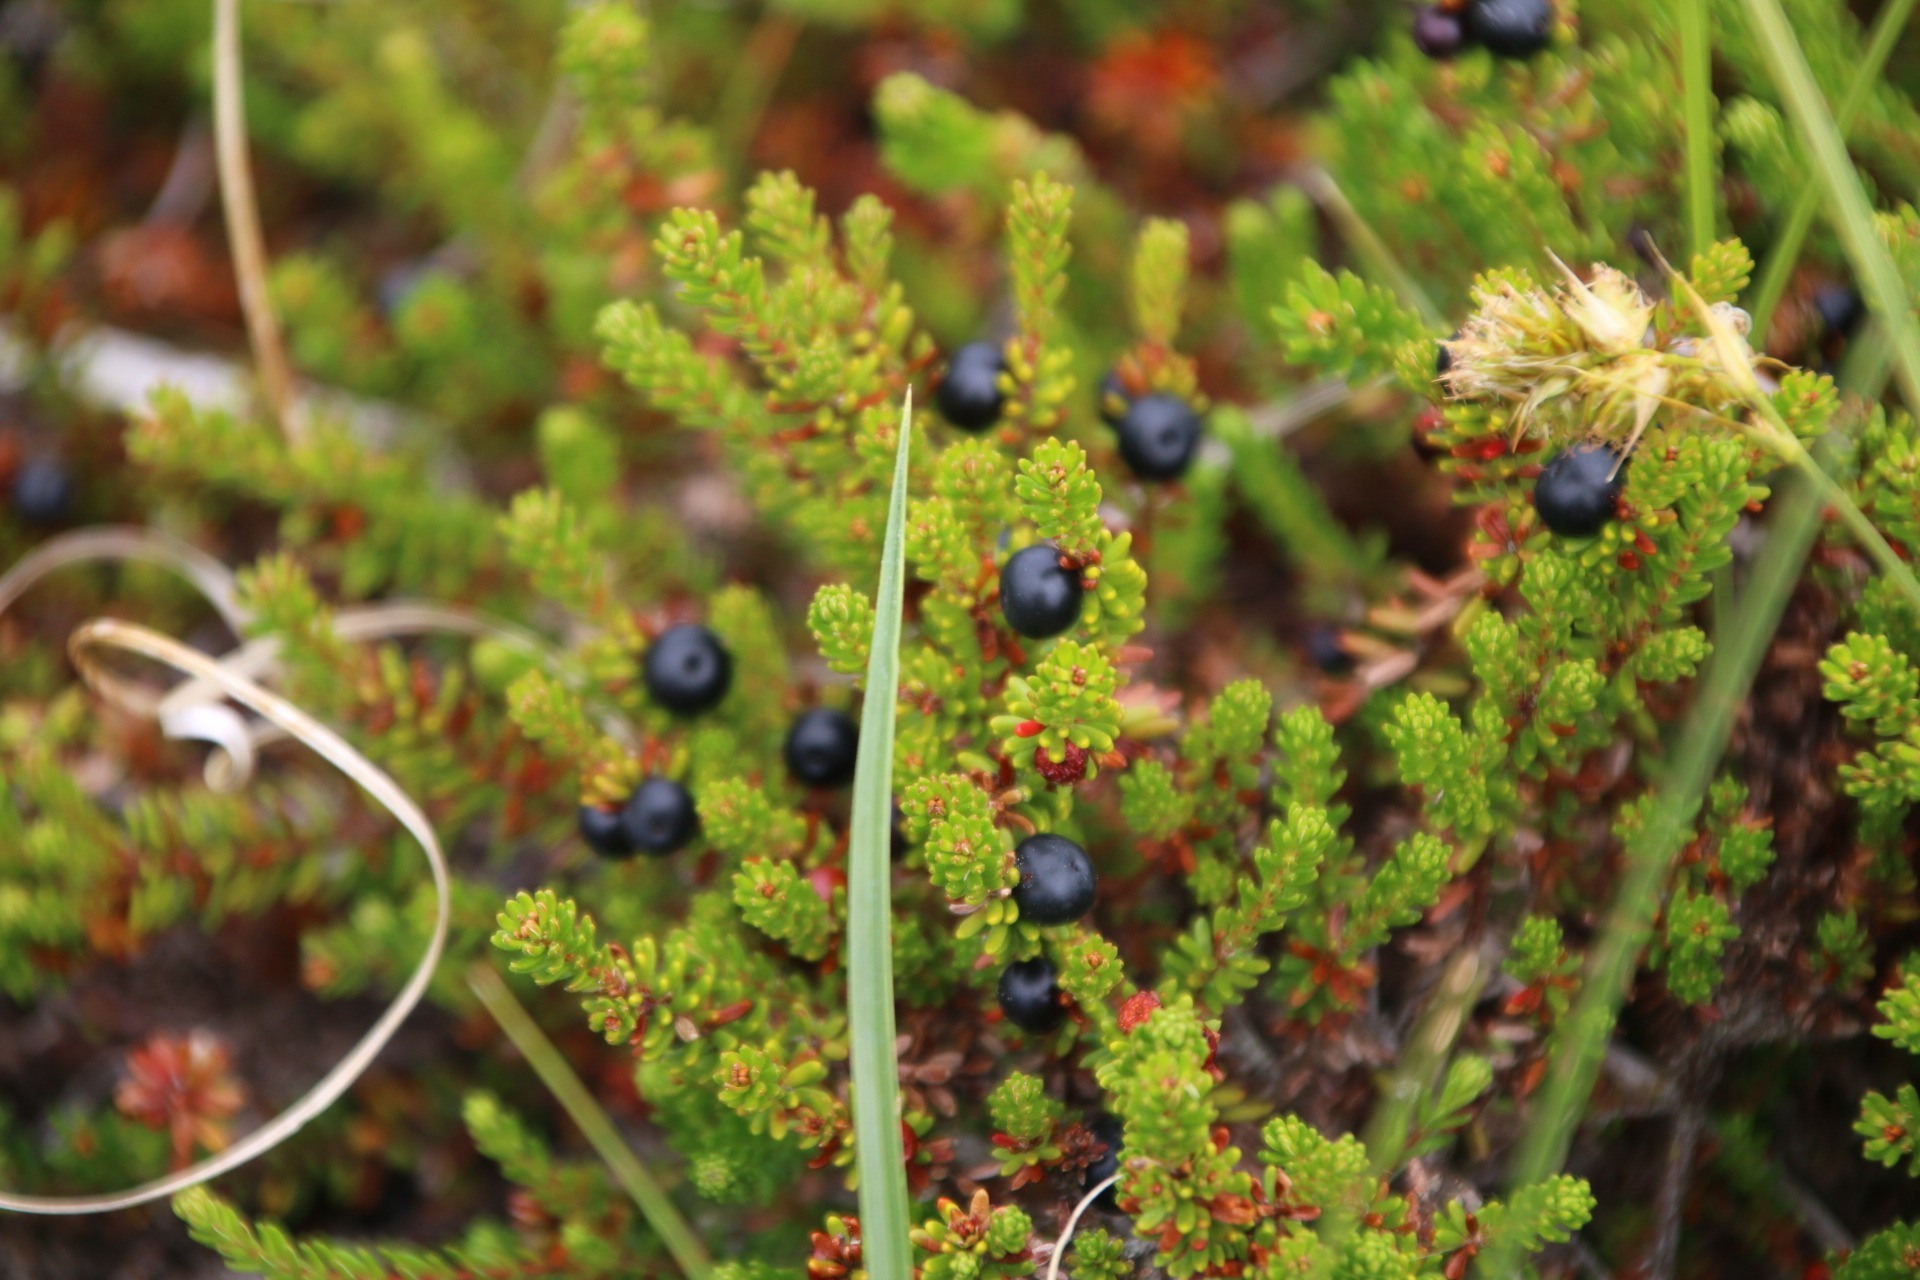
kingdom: Plantae
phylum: Tracheophyta
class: Magnoliopsida
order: Ericales
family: Ericaceae
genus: Empetrum
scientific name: Empetrum nigrum
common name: Revling
